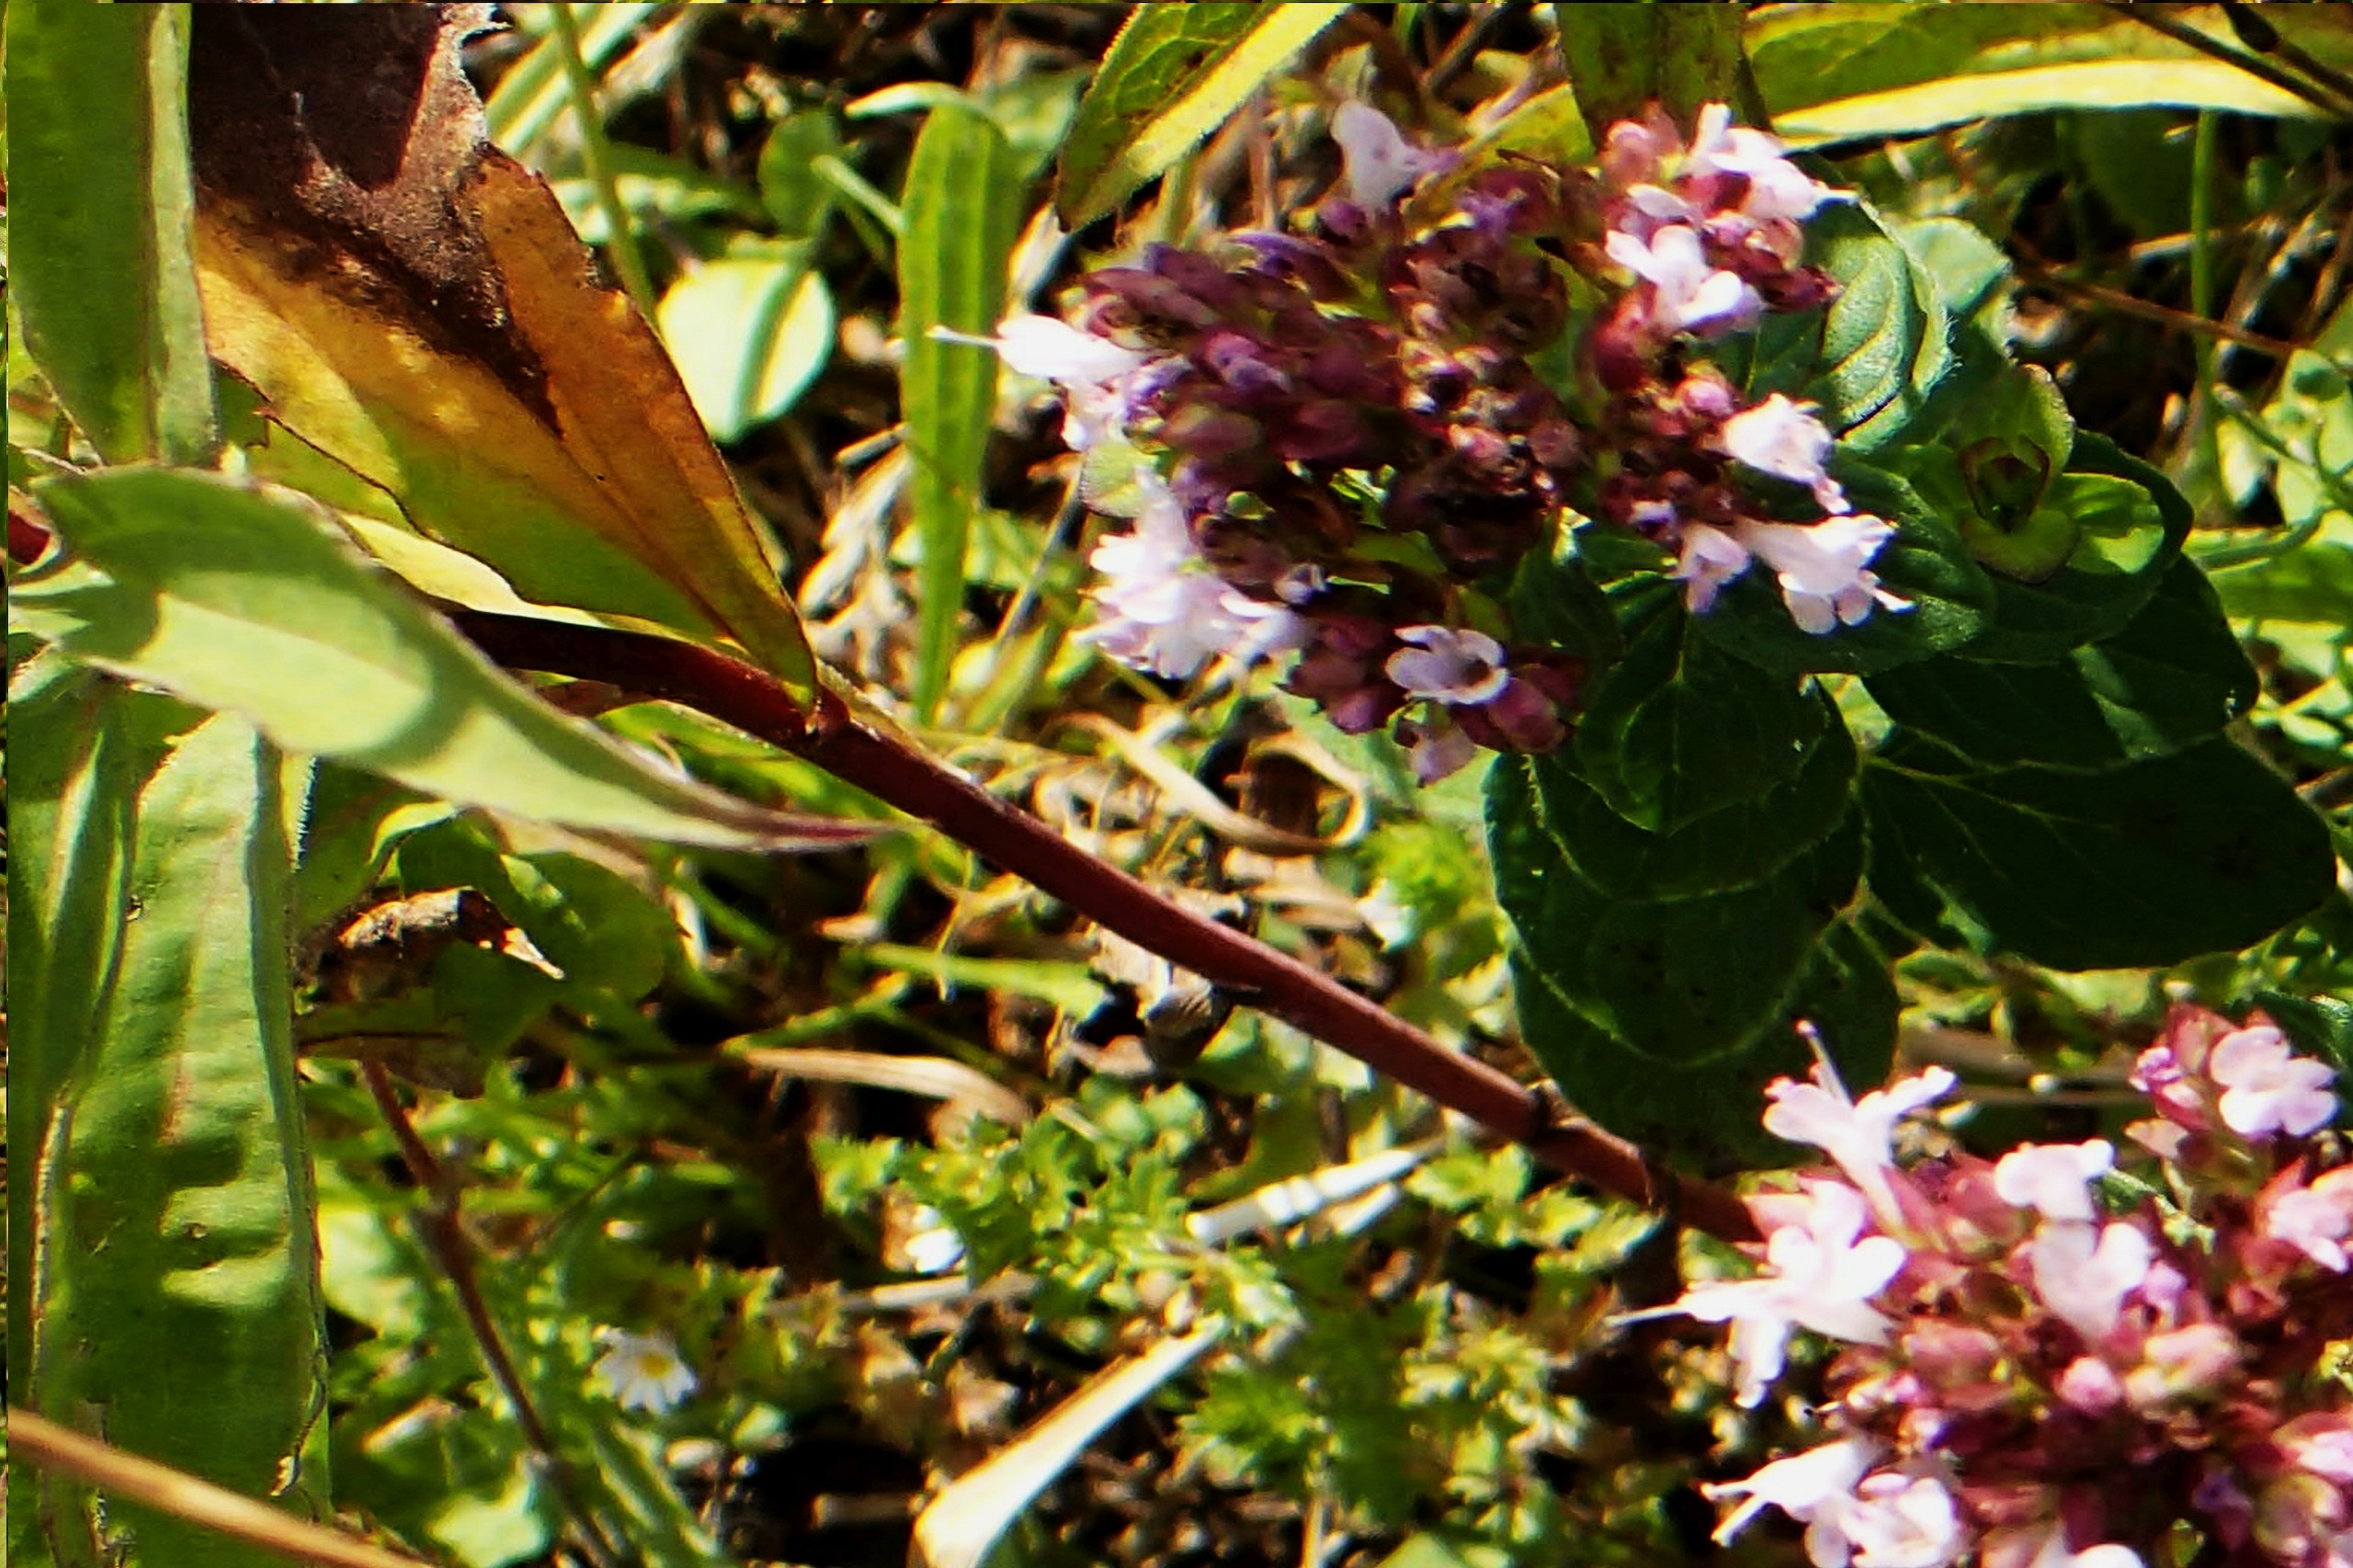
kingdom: Plantae
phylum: Tracheophyta
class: Magnoliopsida
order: Lamiales
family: Lamiaceae
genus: Origanum
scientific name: Origanum vulgare
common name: Merian
